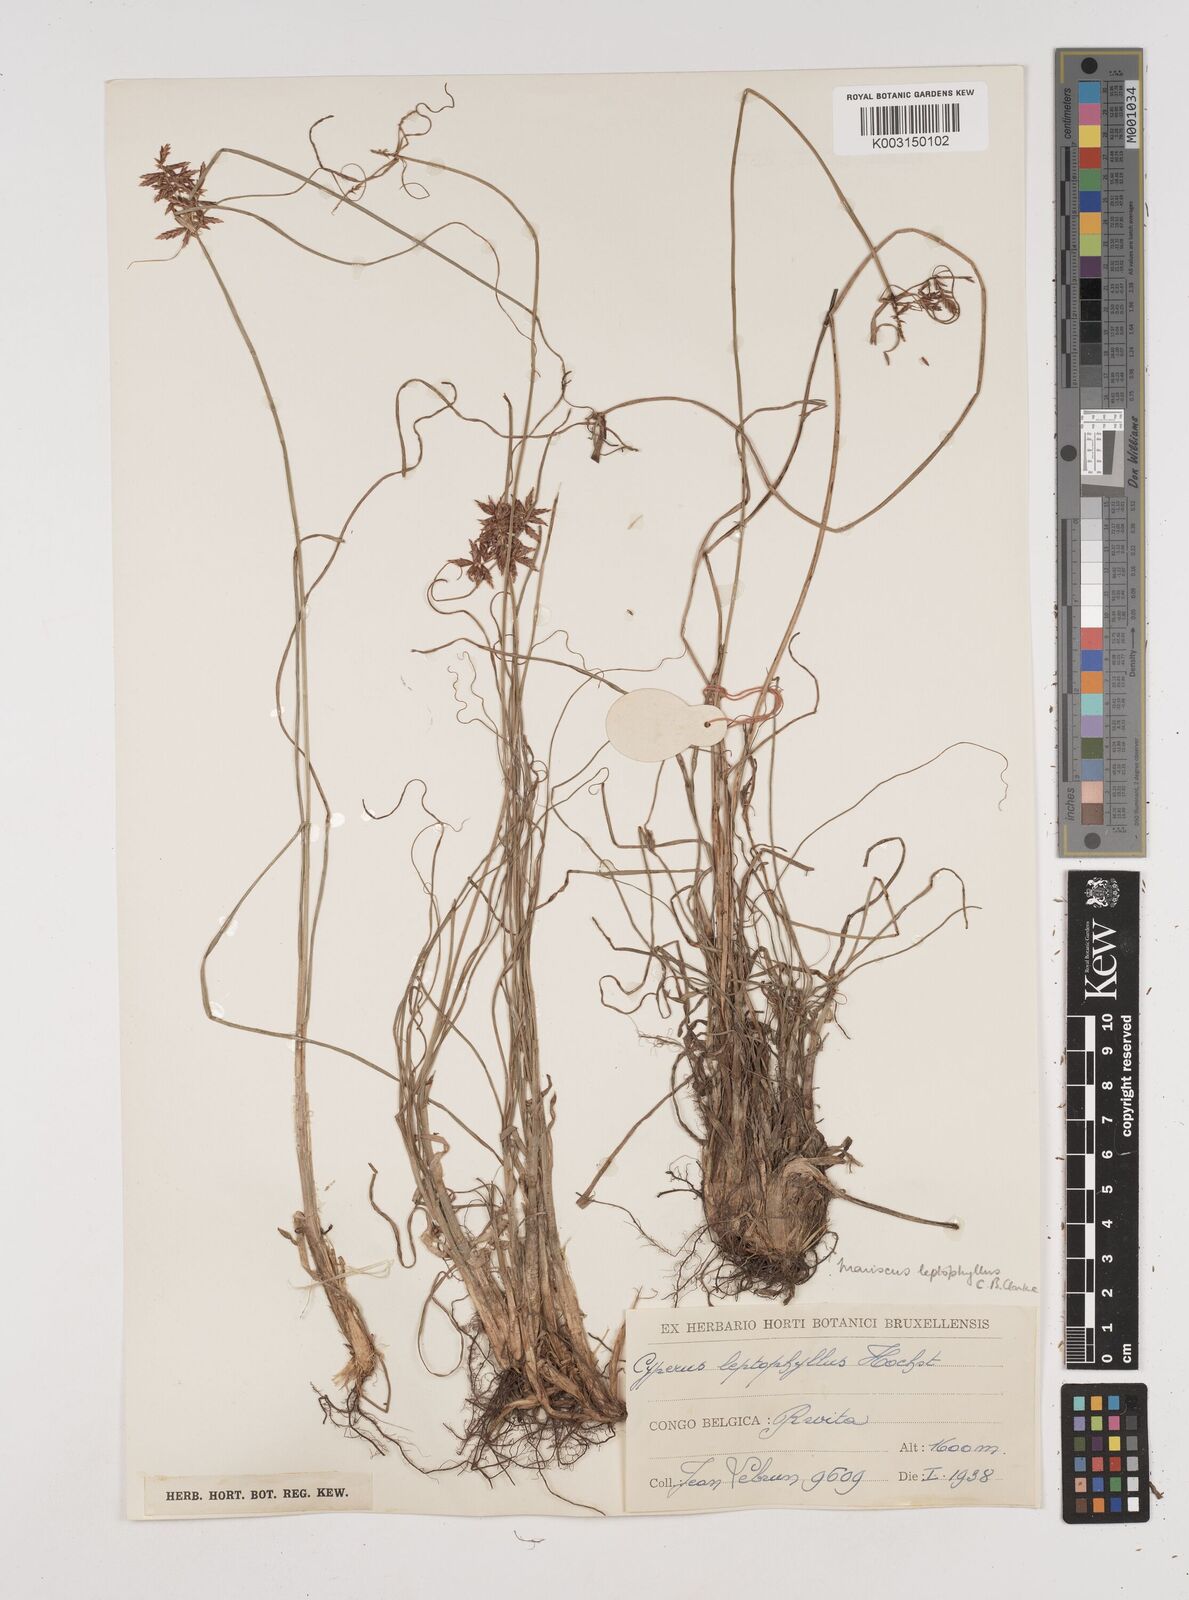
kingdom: Plantae
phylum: Tracheophyta
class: Liliopsida
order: Poales
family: Cyperaceae
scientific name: Cyperaceae
